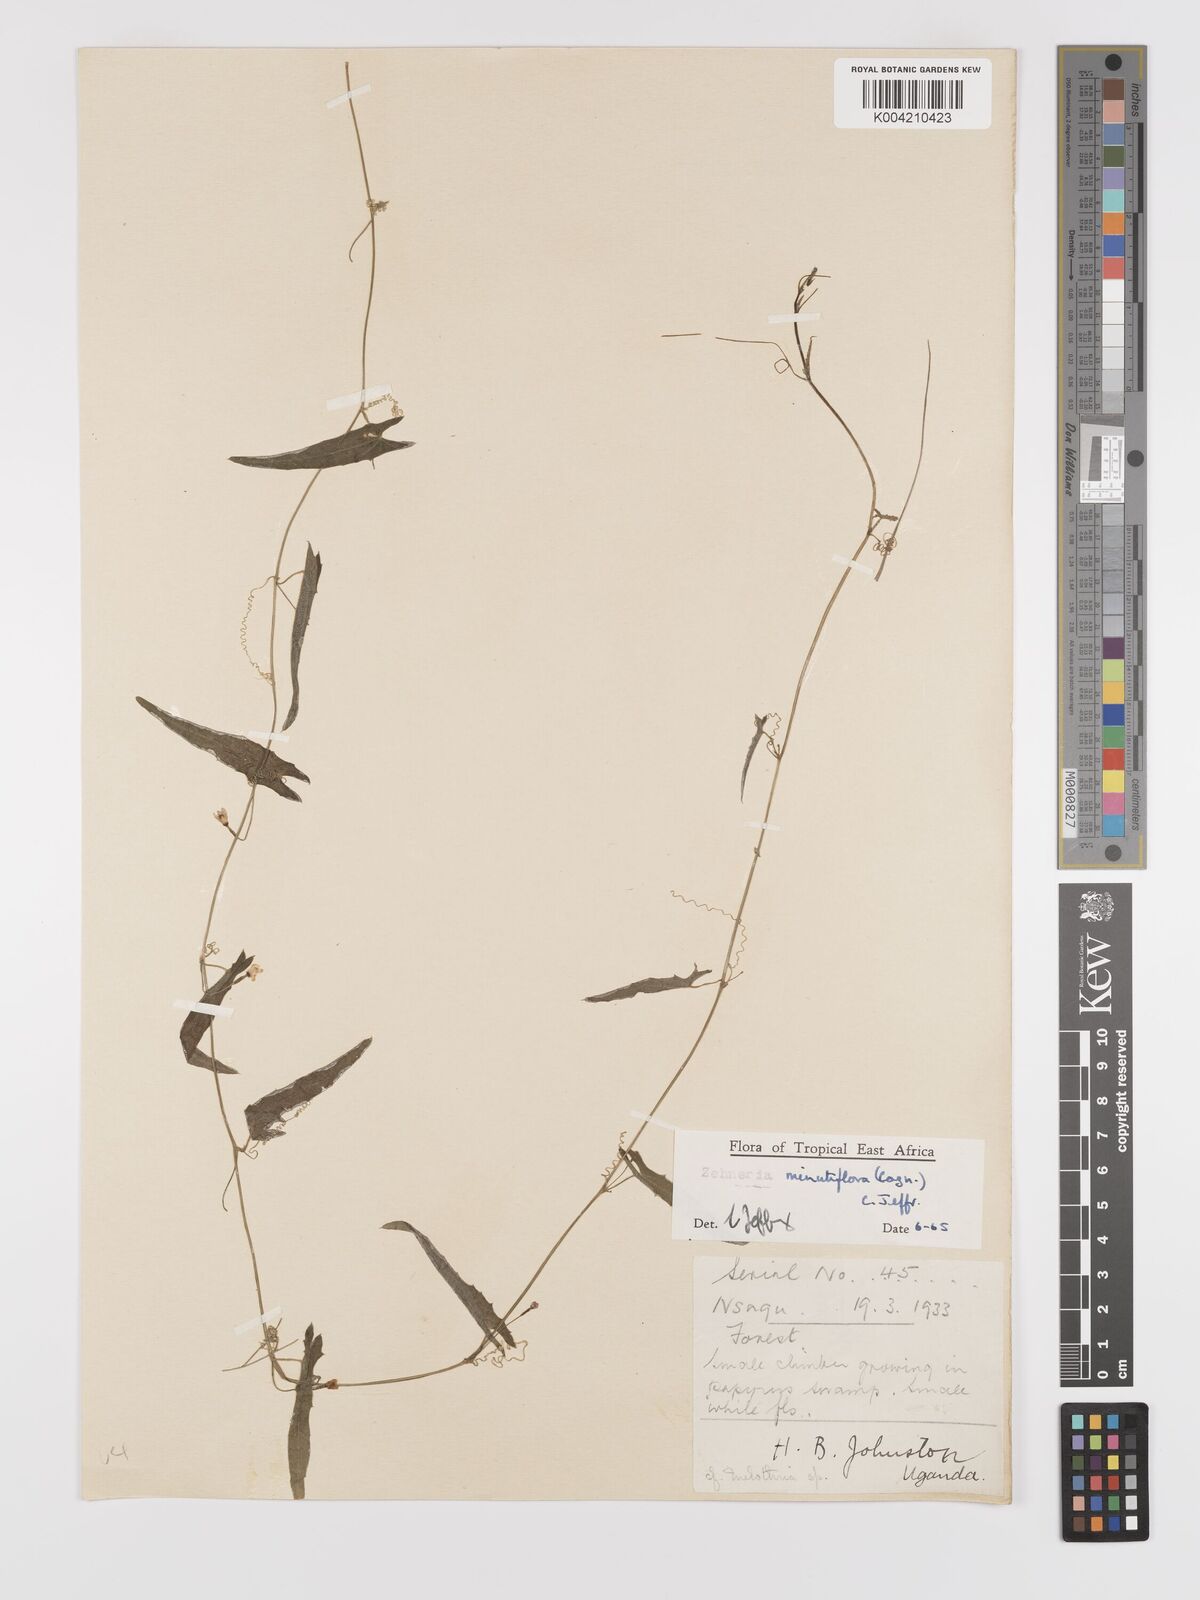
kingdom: Plantae
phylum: Tracheophyta
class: Magnoliopsida
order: Cucurbitales
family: Cucurbitaceae
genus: Zehneria
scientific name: Zehneria minutiflora
